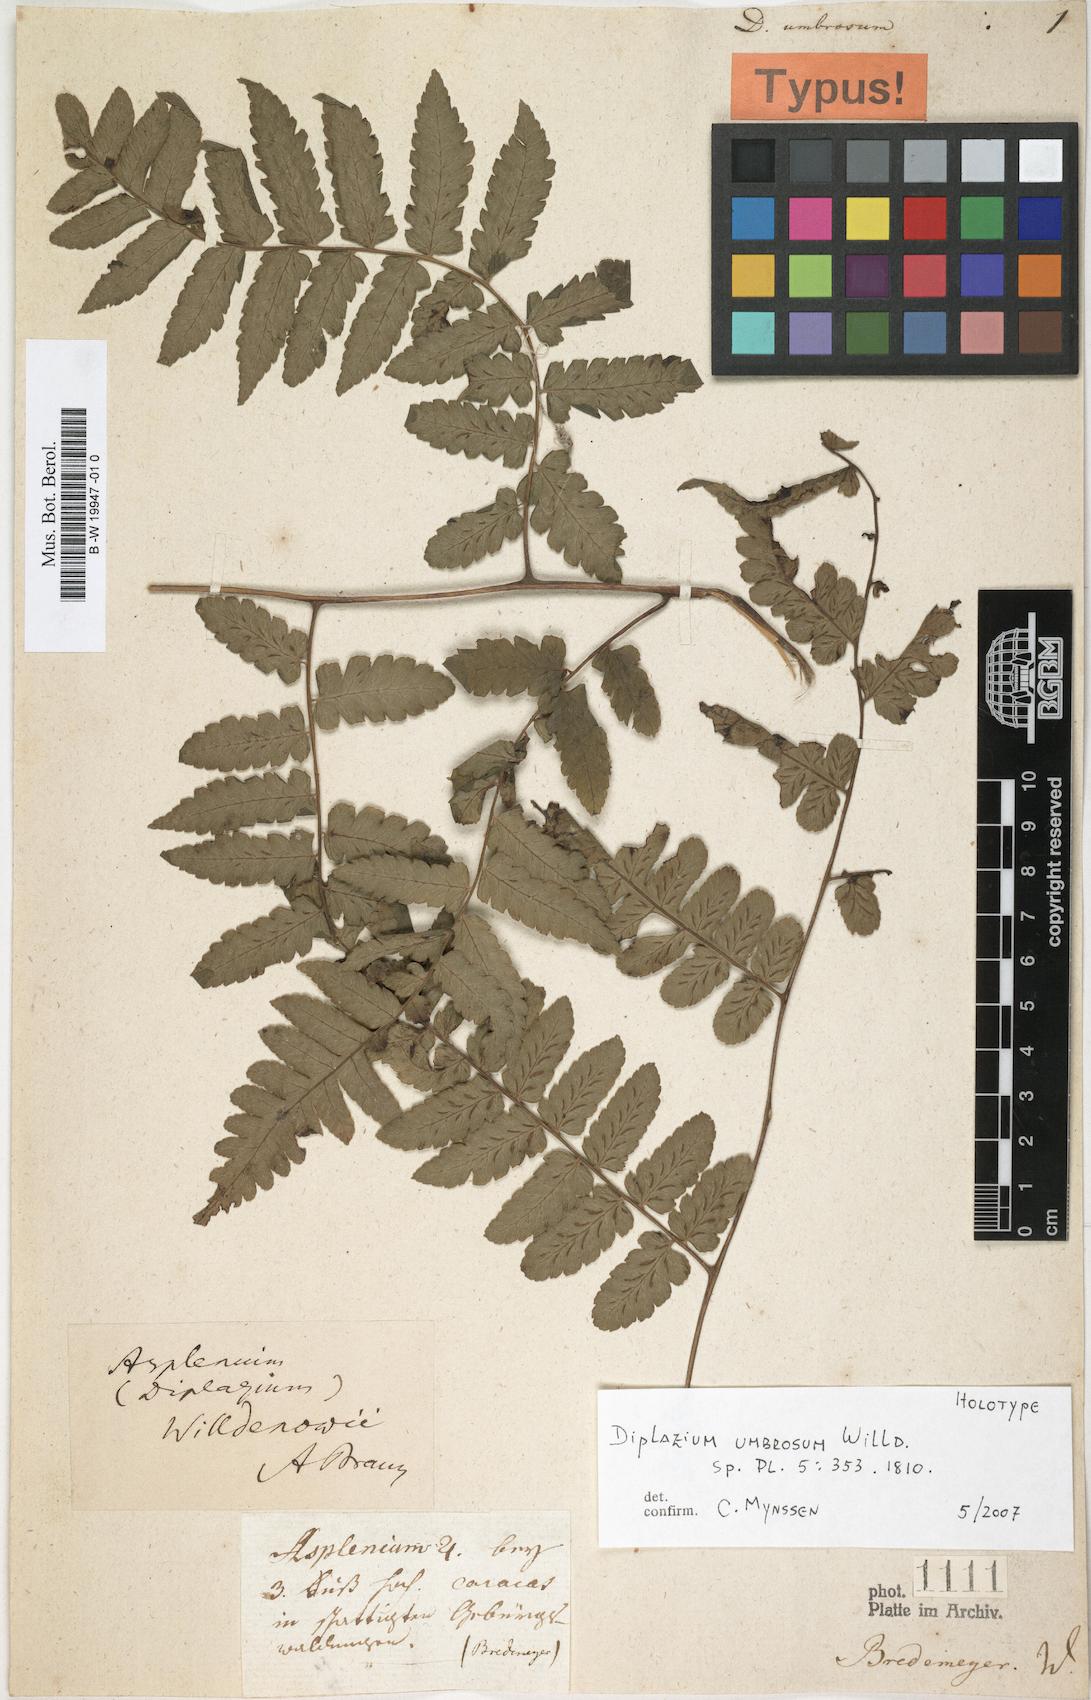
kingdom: Plantae
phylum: Tracheophyta
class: Polypodiopsida
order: Polypodiales
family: Athyriaceae
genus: Diplazium
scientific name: Diplazium
